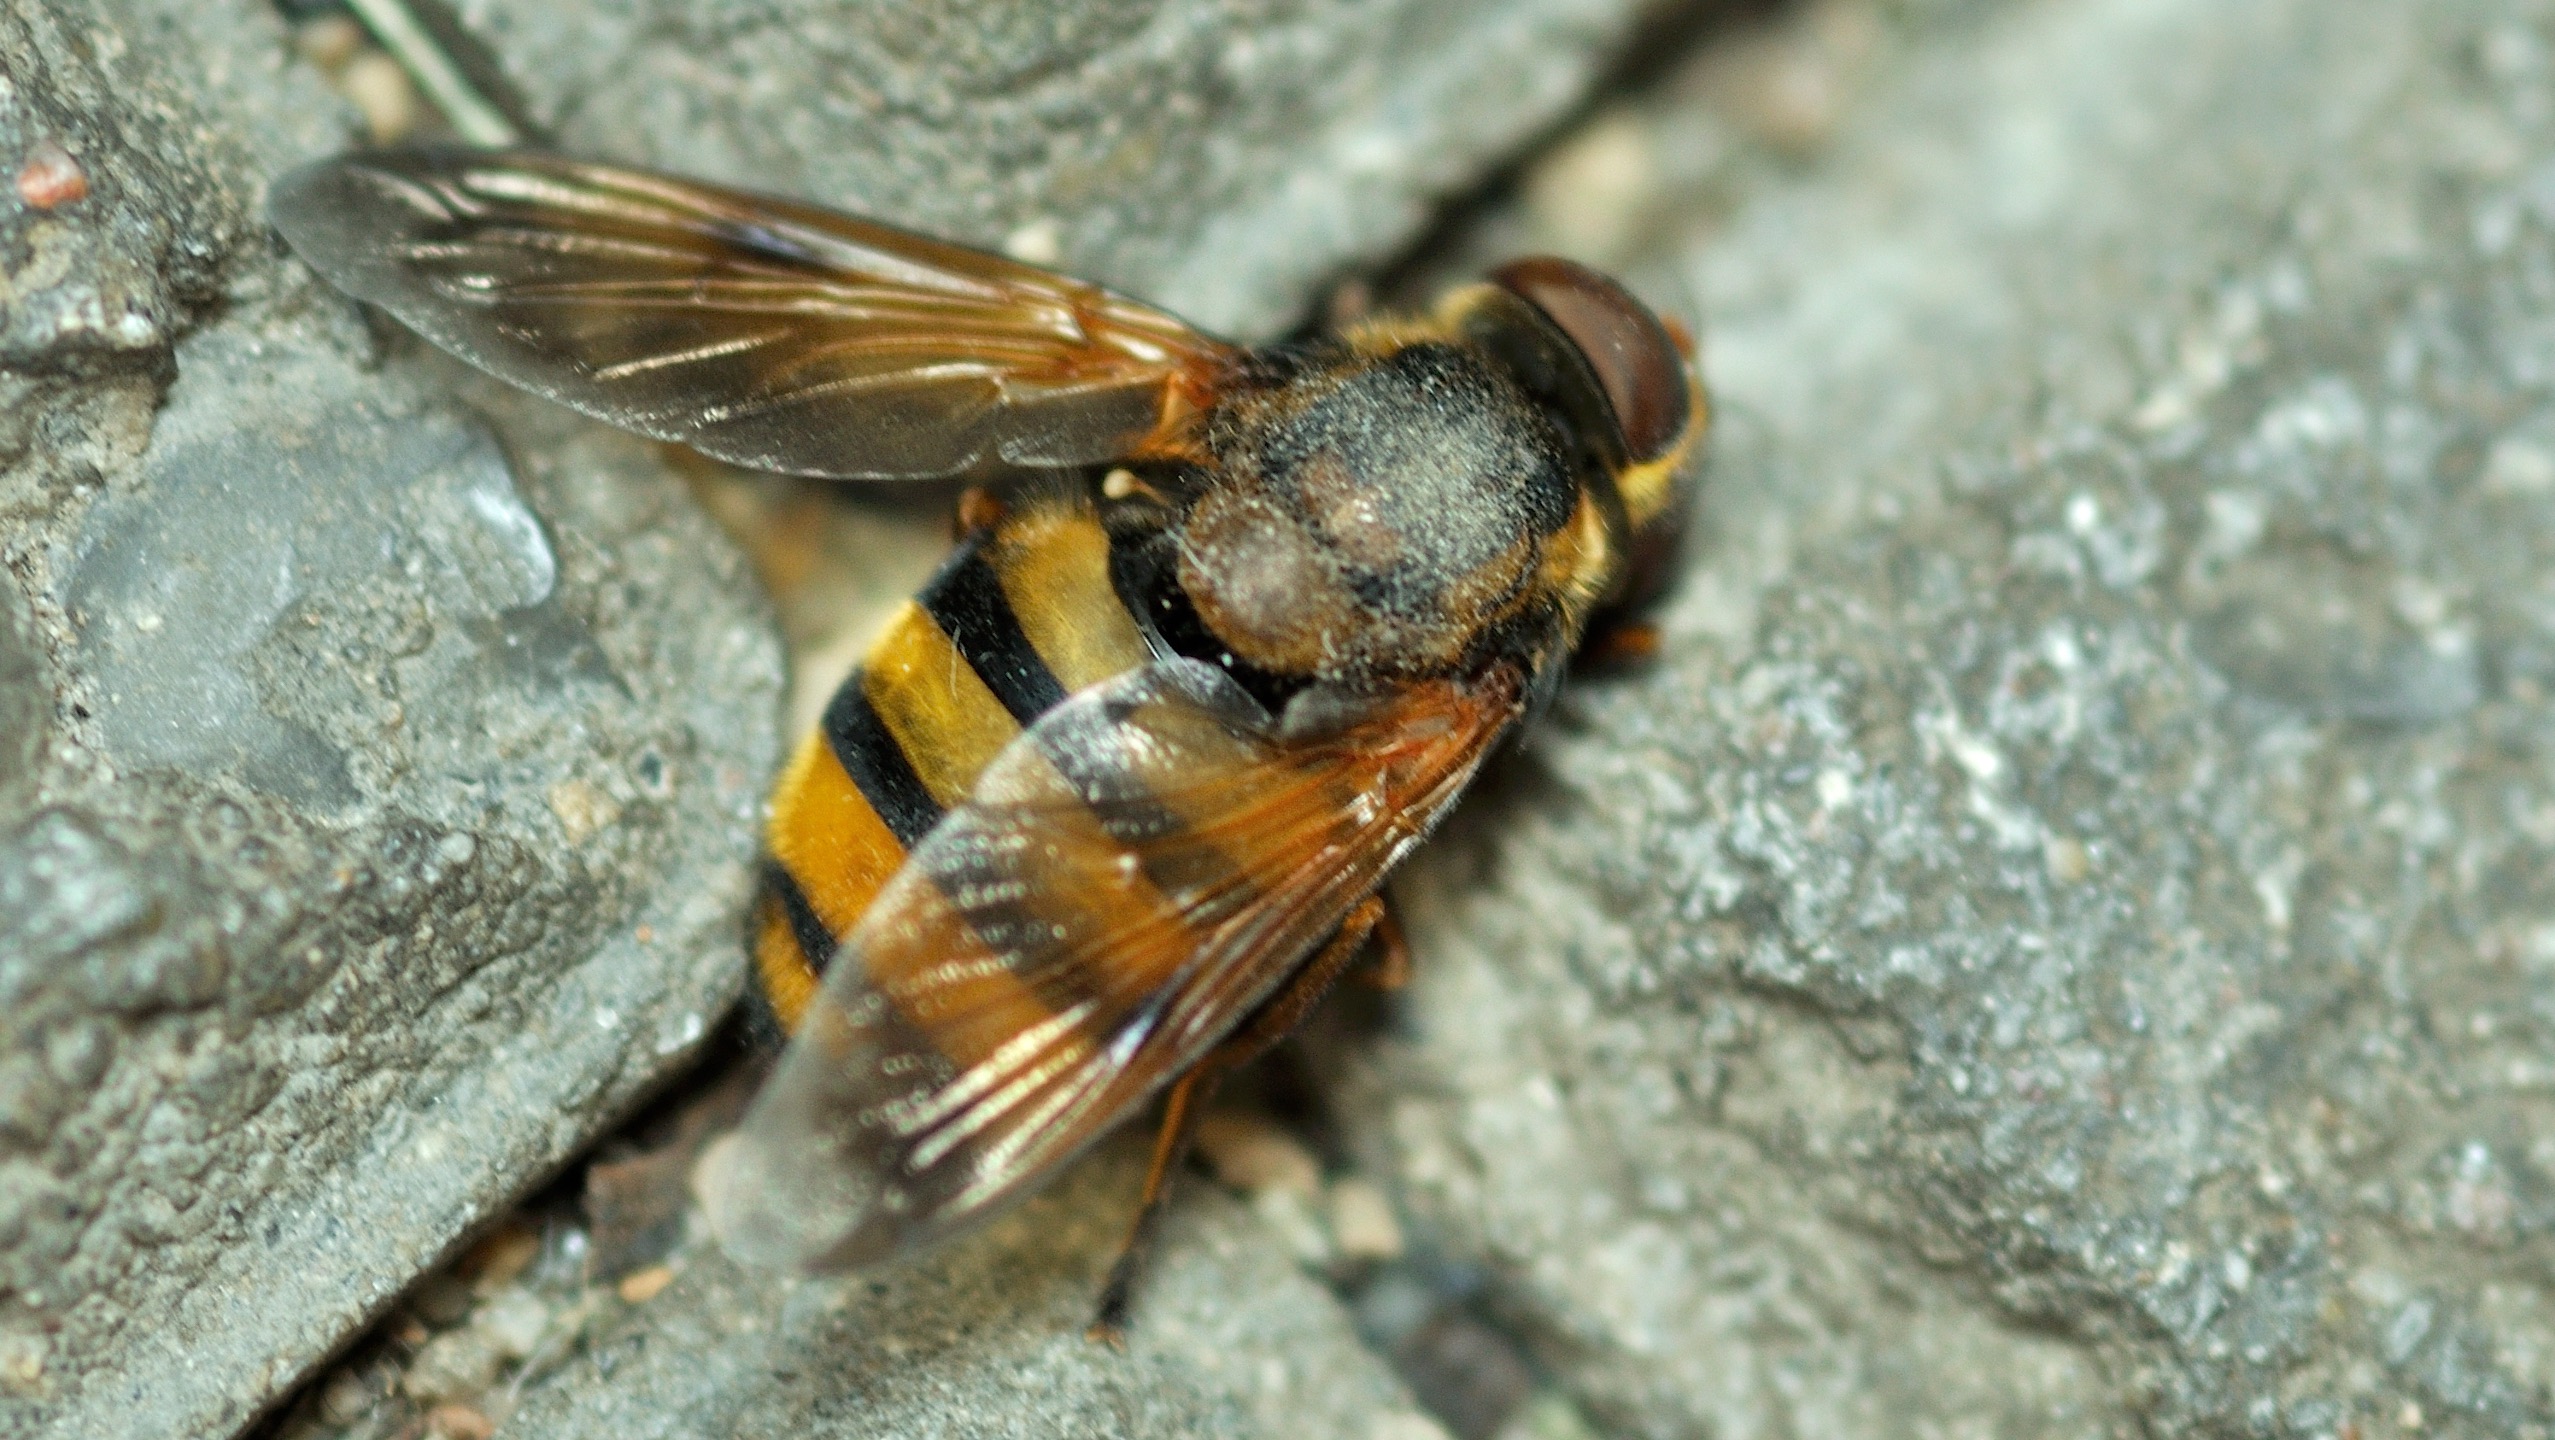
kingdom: Animalia
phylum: Arthropoda
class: Insecta
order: Diptera
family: Syrphidae
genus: Volucella
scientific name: Volucella inanis
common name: Gul humlesvirreflue
